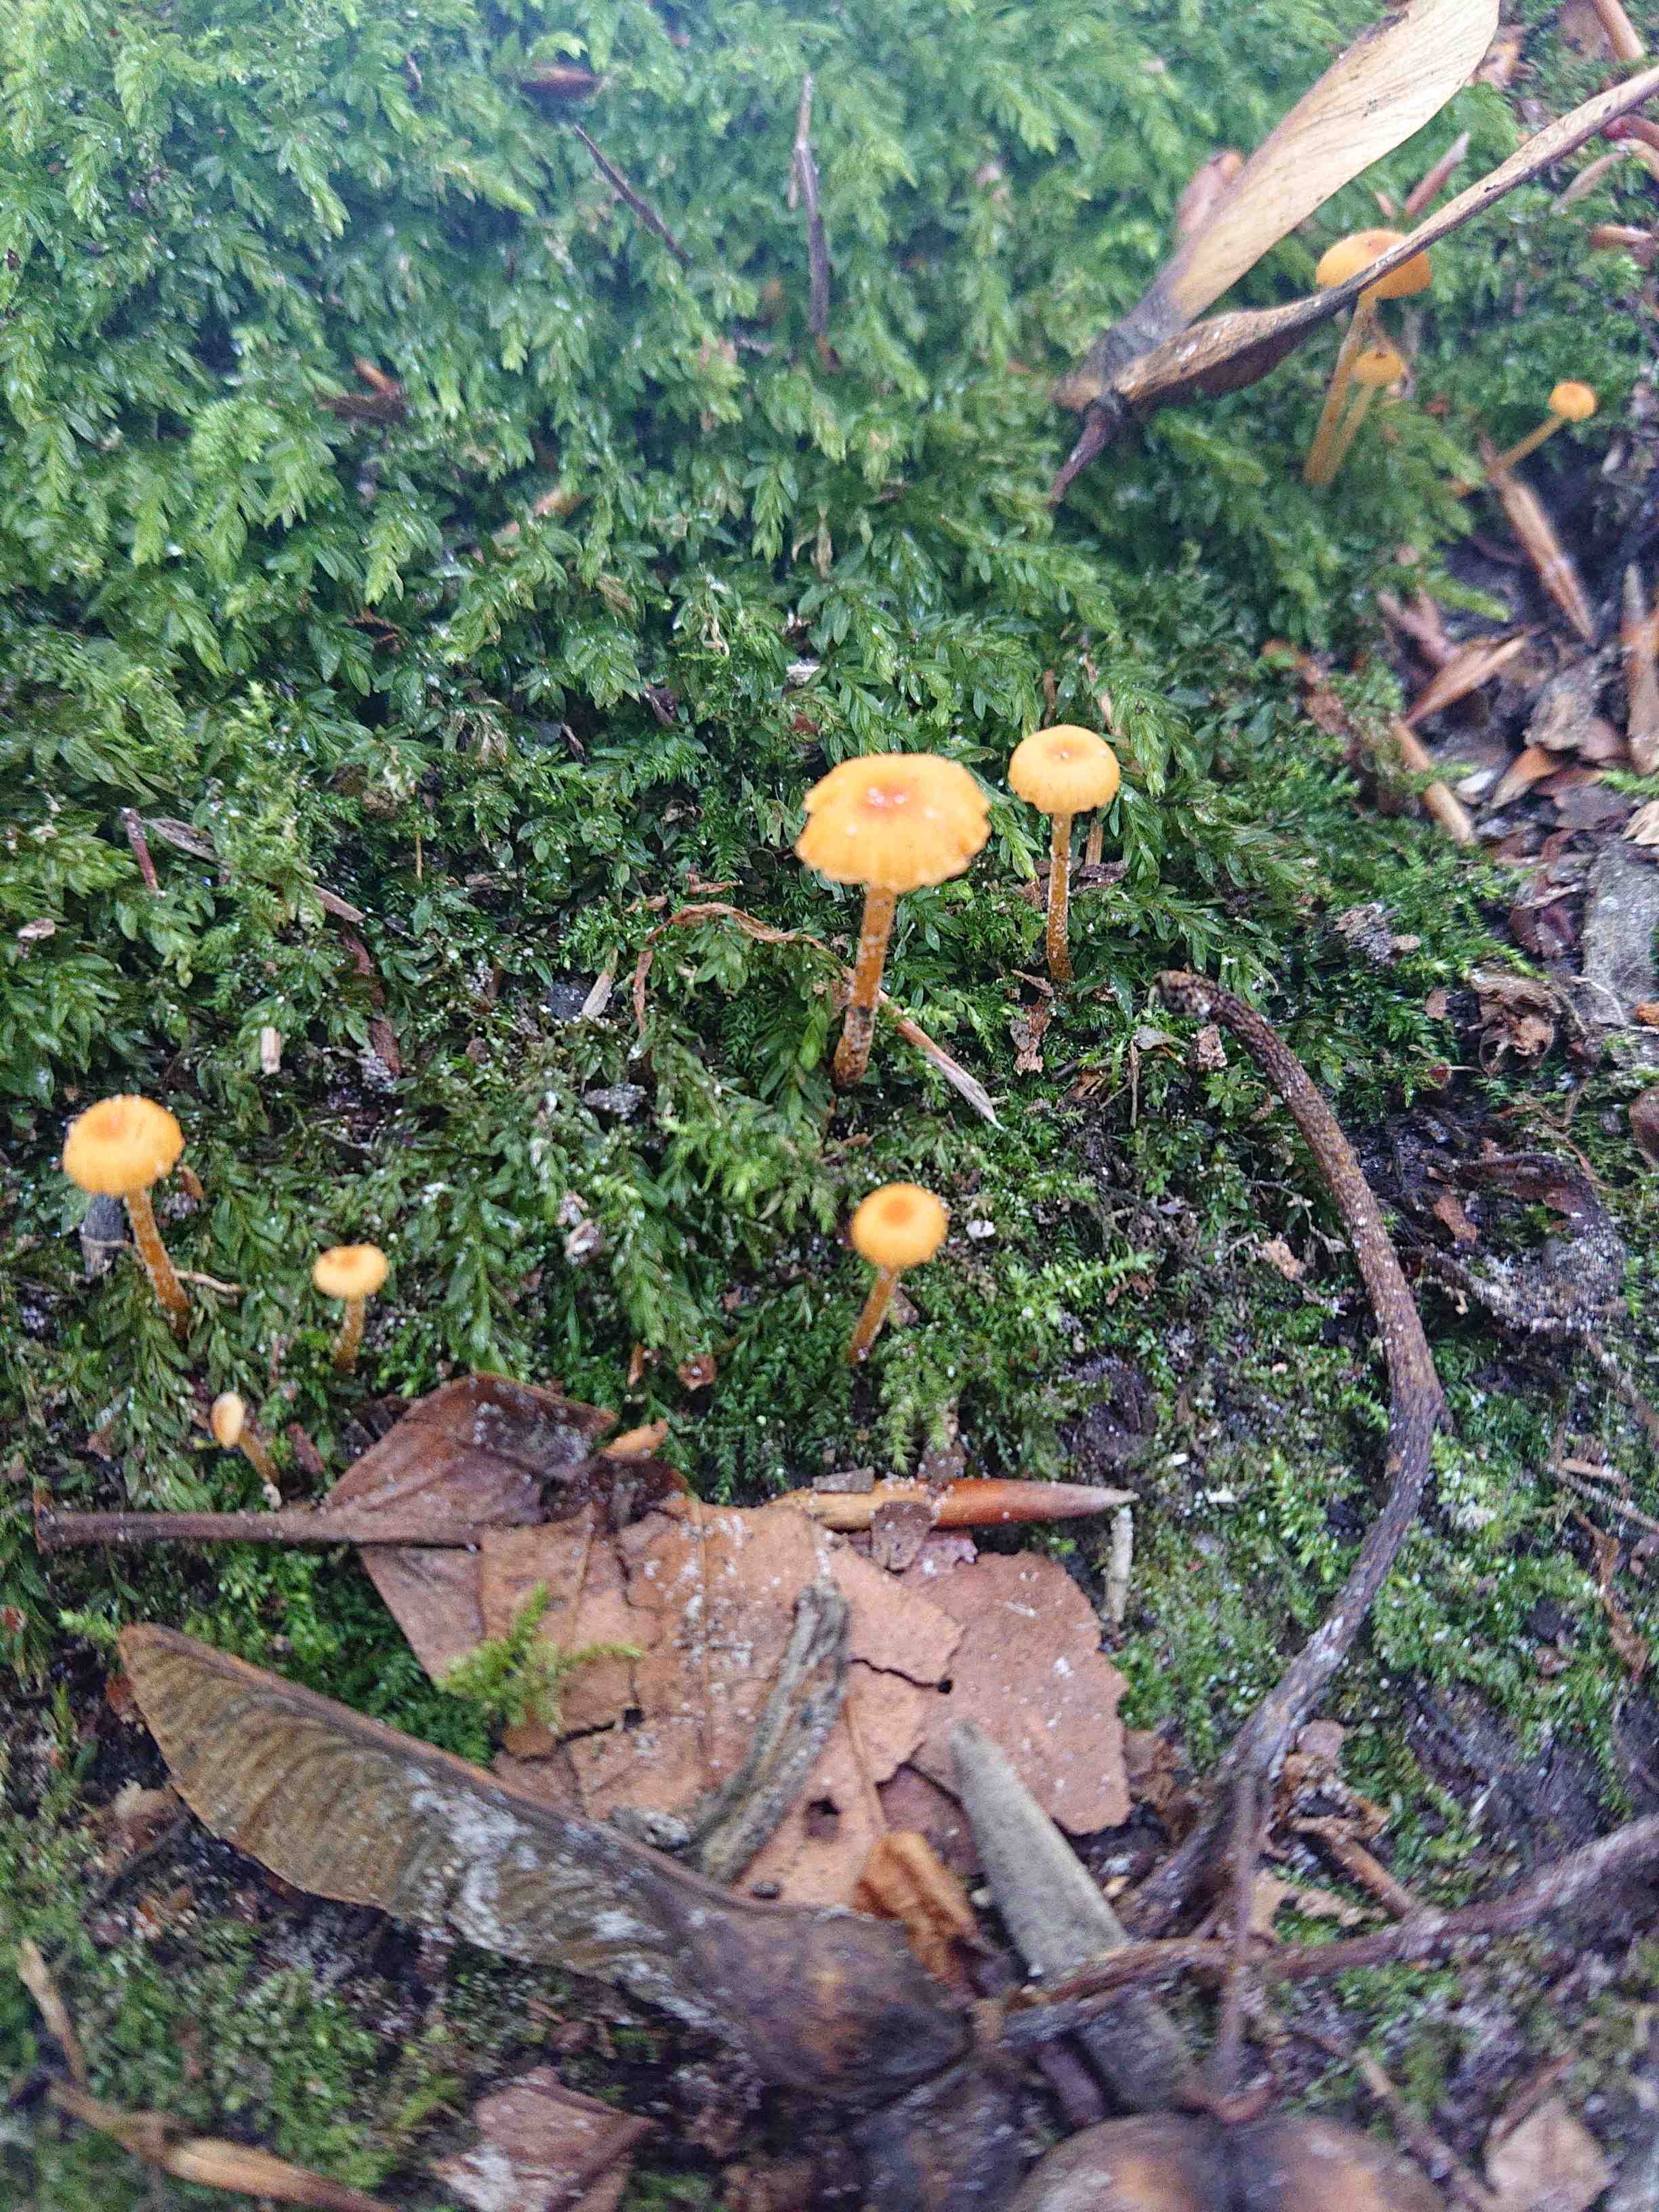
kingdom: Fungi
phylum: Basidiomycota
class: Agaricomycetes
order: Hymenochaetales
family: Rickenellaceae
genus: Rickenella
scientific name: Rickenella fibula
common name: orange mosnavlehat
